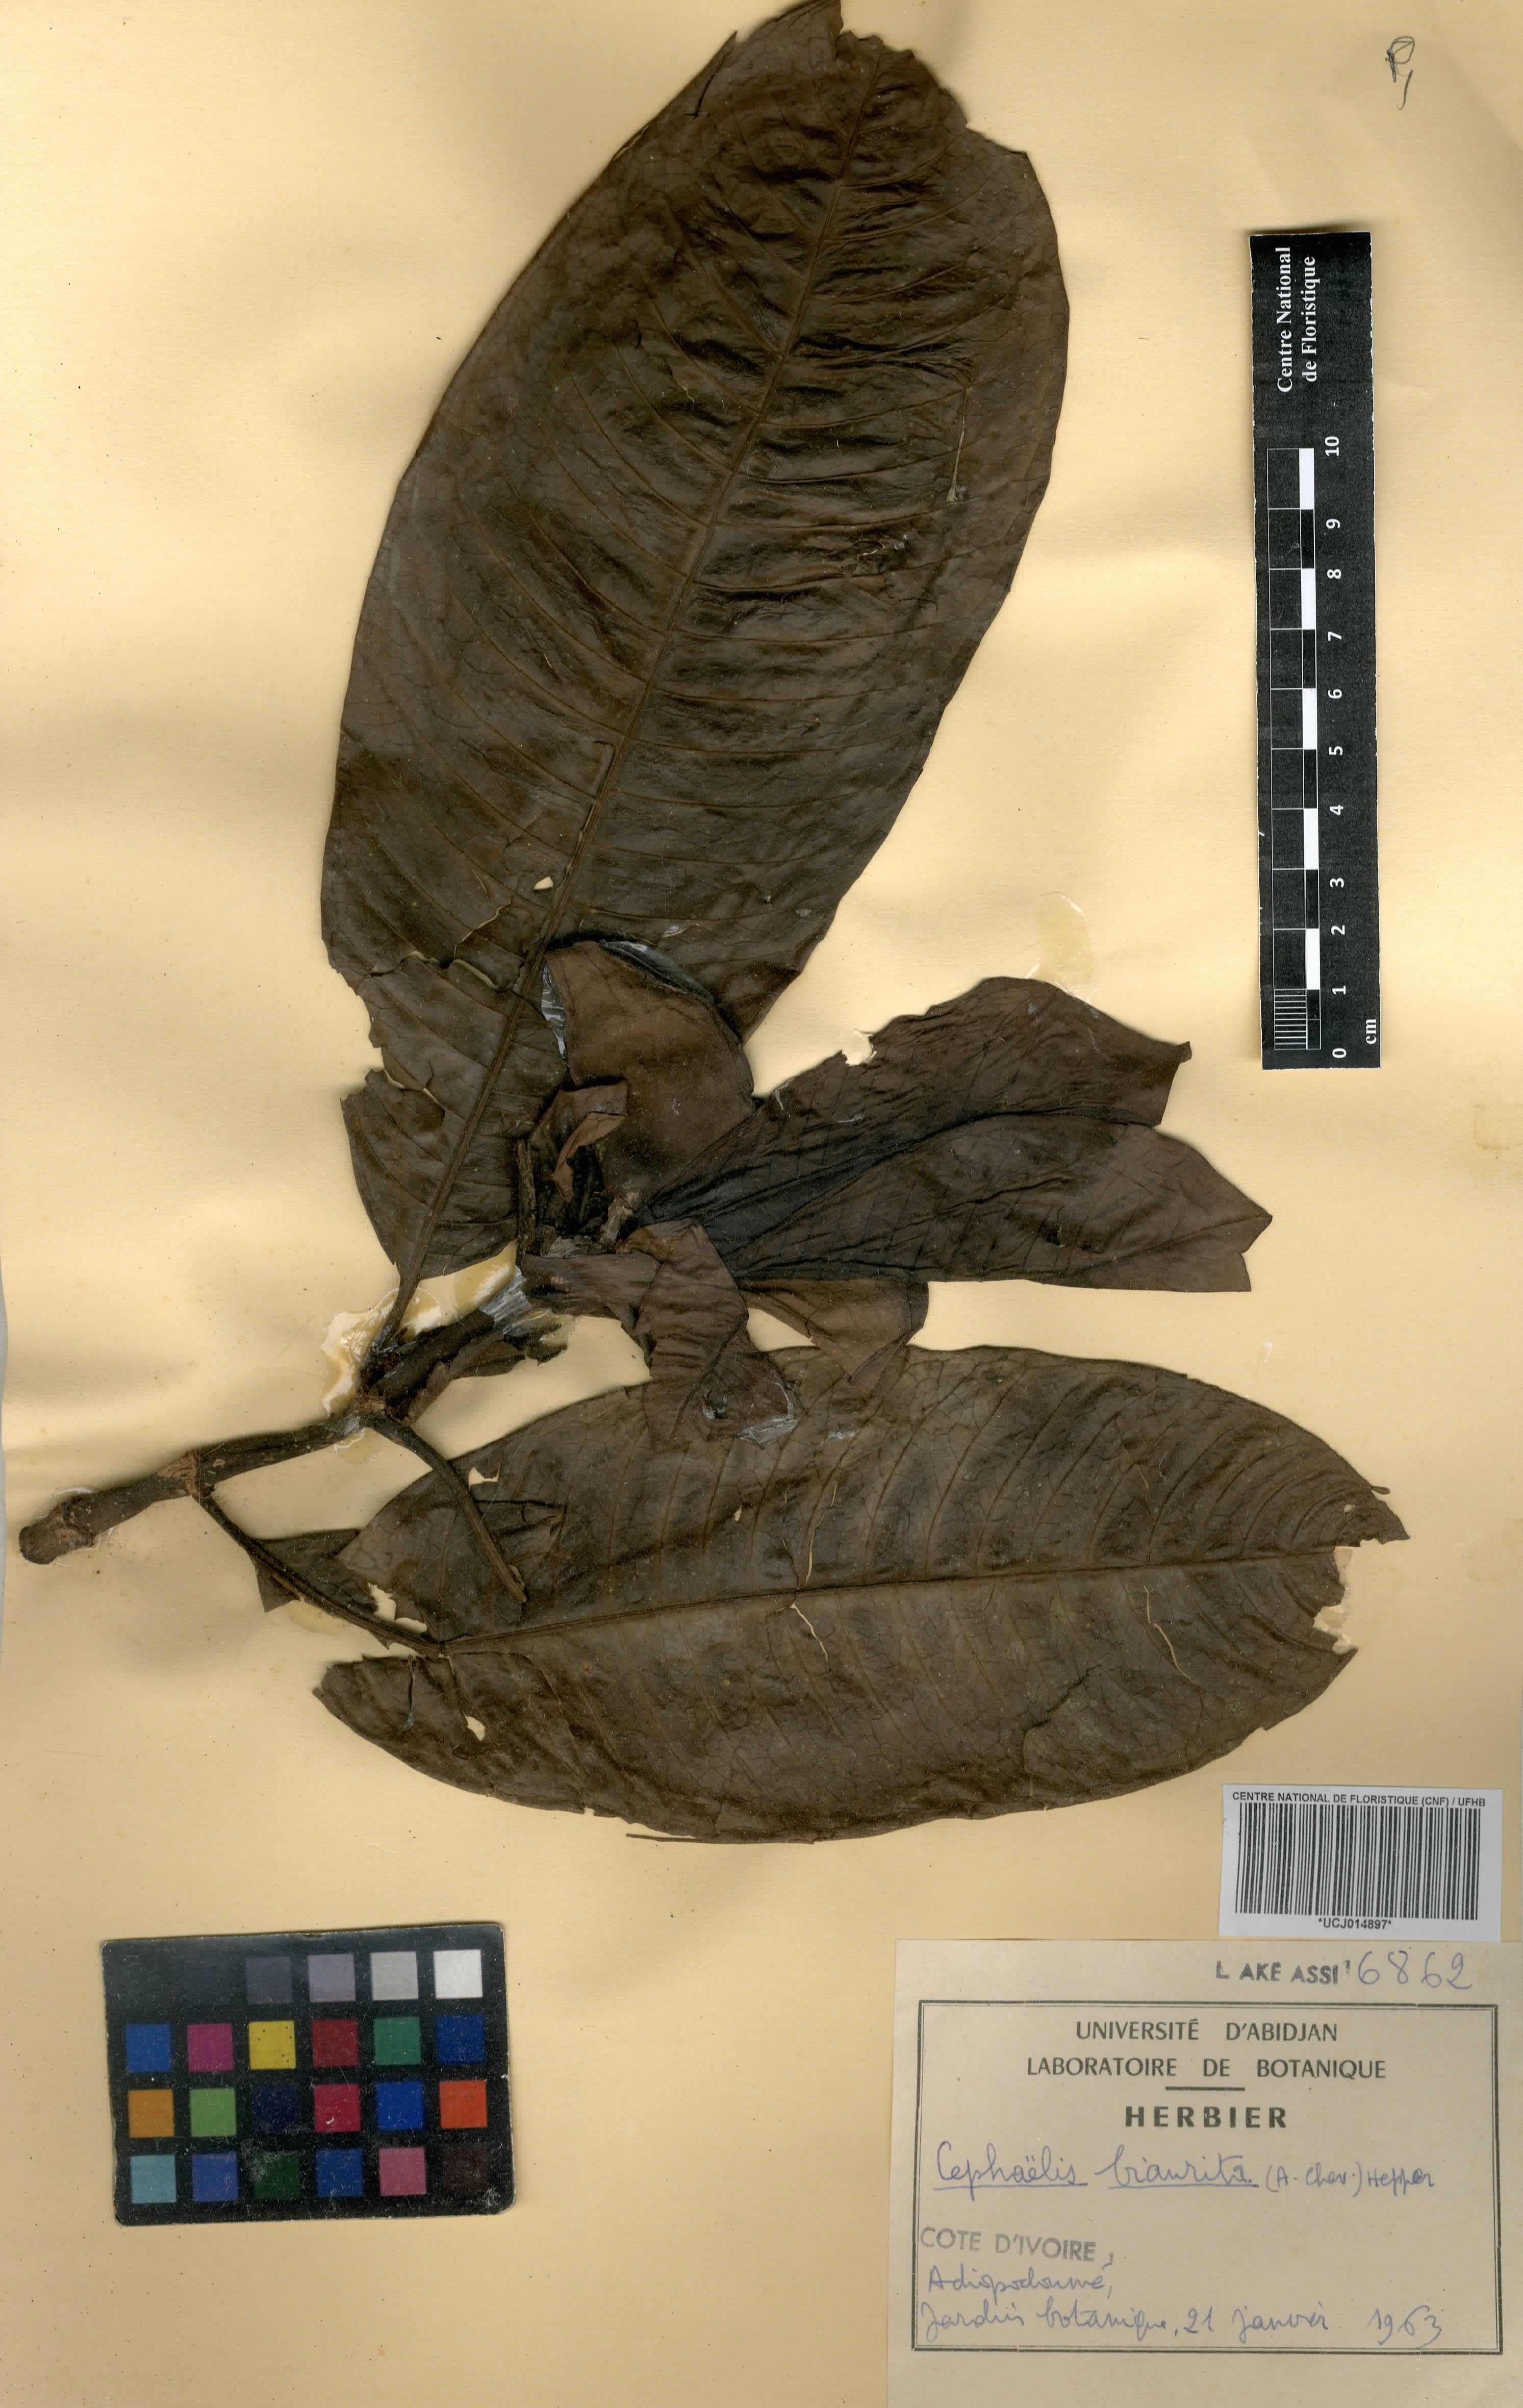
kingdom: Plantae
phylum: Tracheophyta
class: Magnoliopsida
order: Gentianales
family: Rubiaceae
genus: Psychotria
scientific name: Psychotria biaurita
